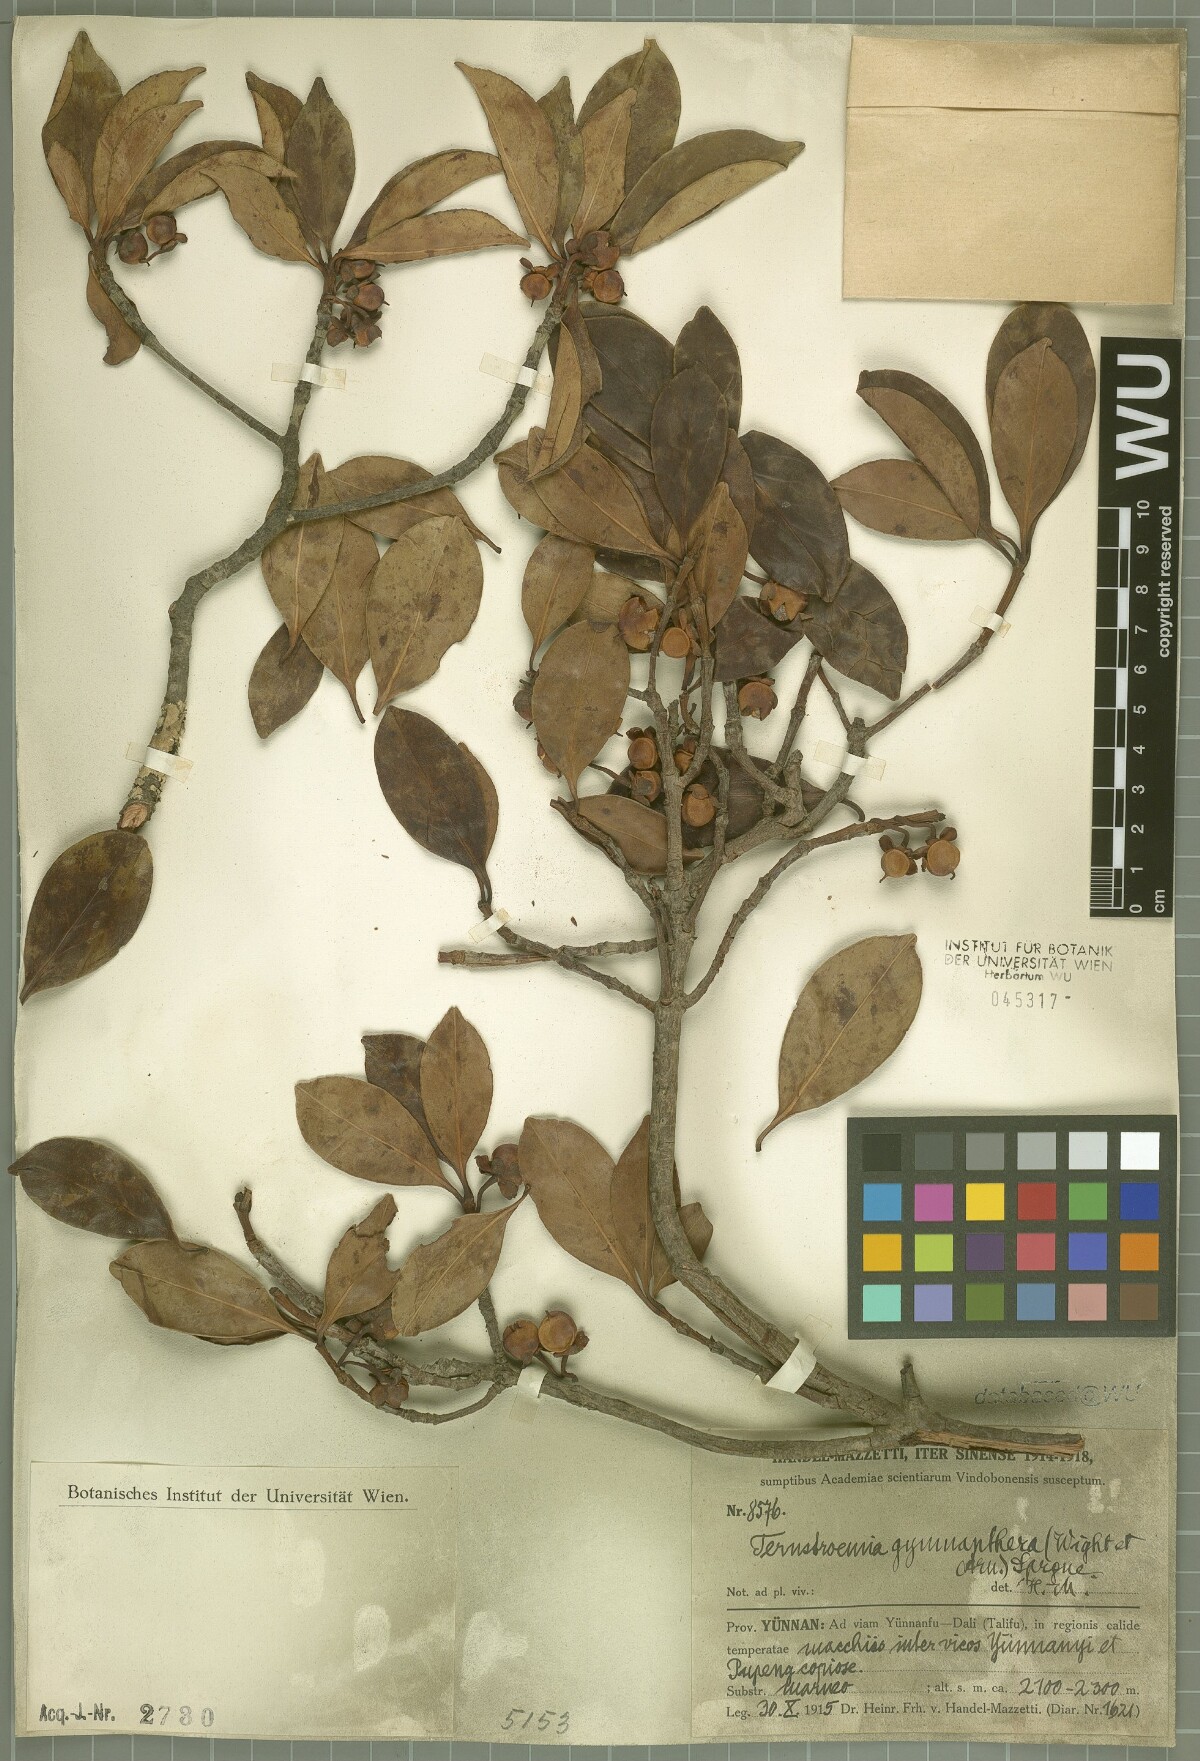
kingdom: Plantae
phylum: Tracheophyta
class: Magnoliopsida
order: Ericales
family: Pentaphylacaceae
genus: Ternstroemia
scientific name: Ternstroemia gymnanthera
